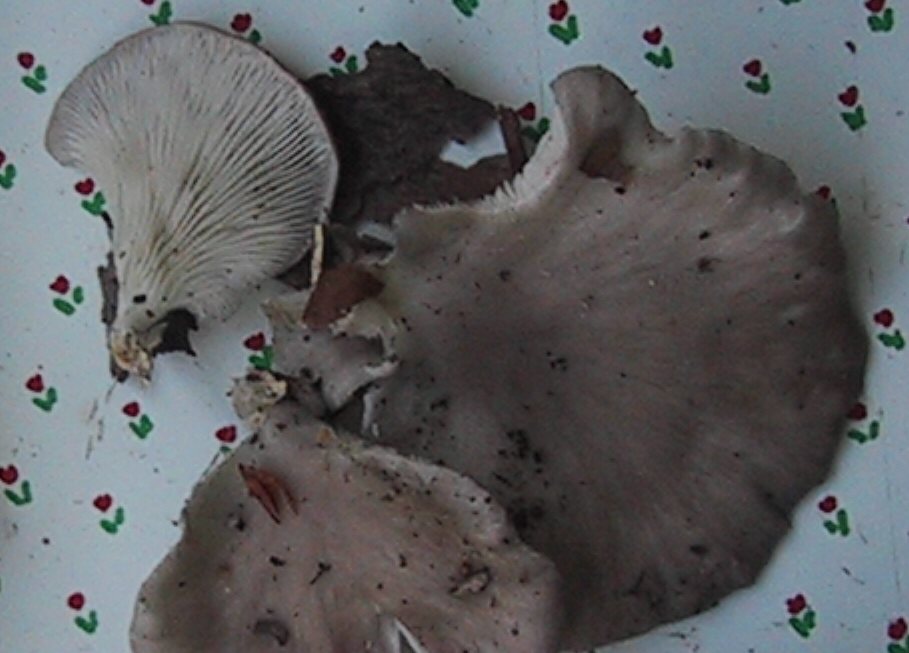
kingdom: Fungi
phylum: Basidiomycota
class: Agaricomycetes
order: Agaricales
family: Pleurotaceae
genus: Pleurotus
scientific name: Pleurotus ostreatus
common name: Oyster mushroom
